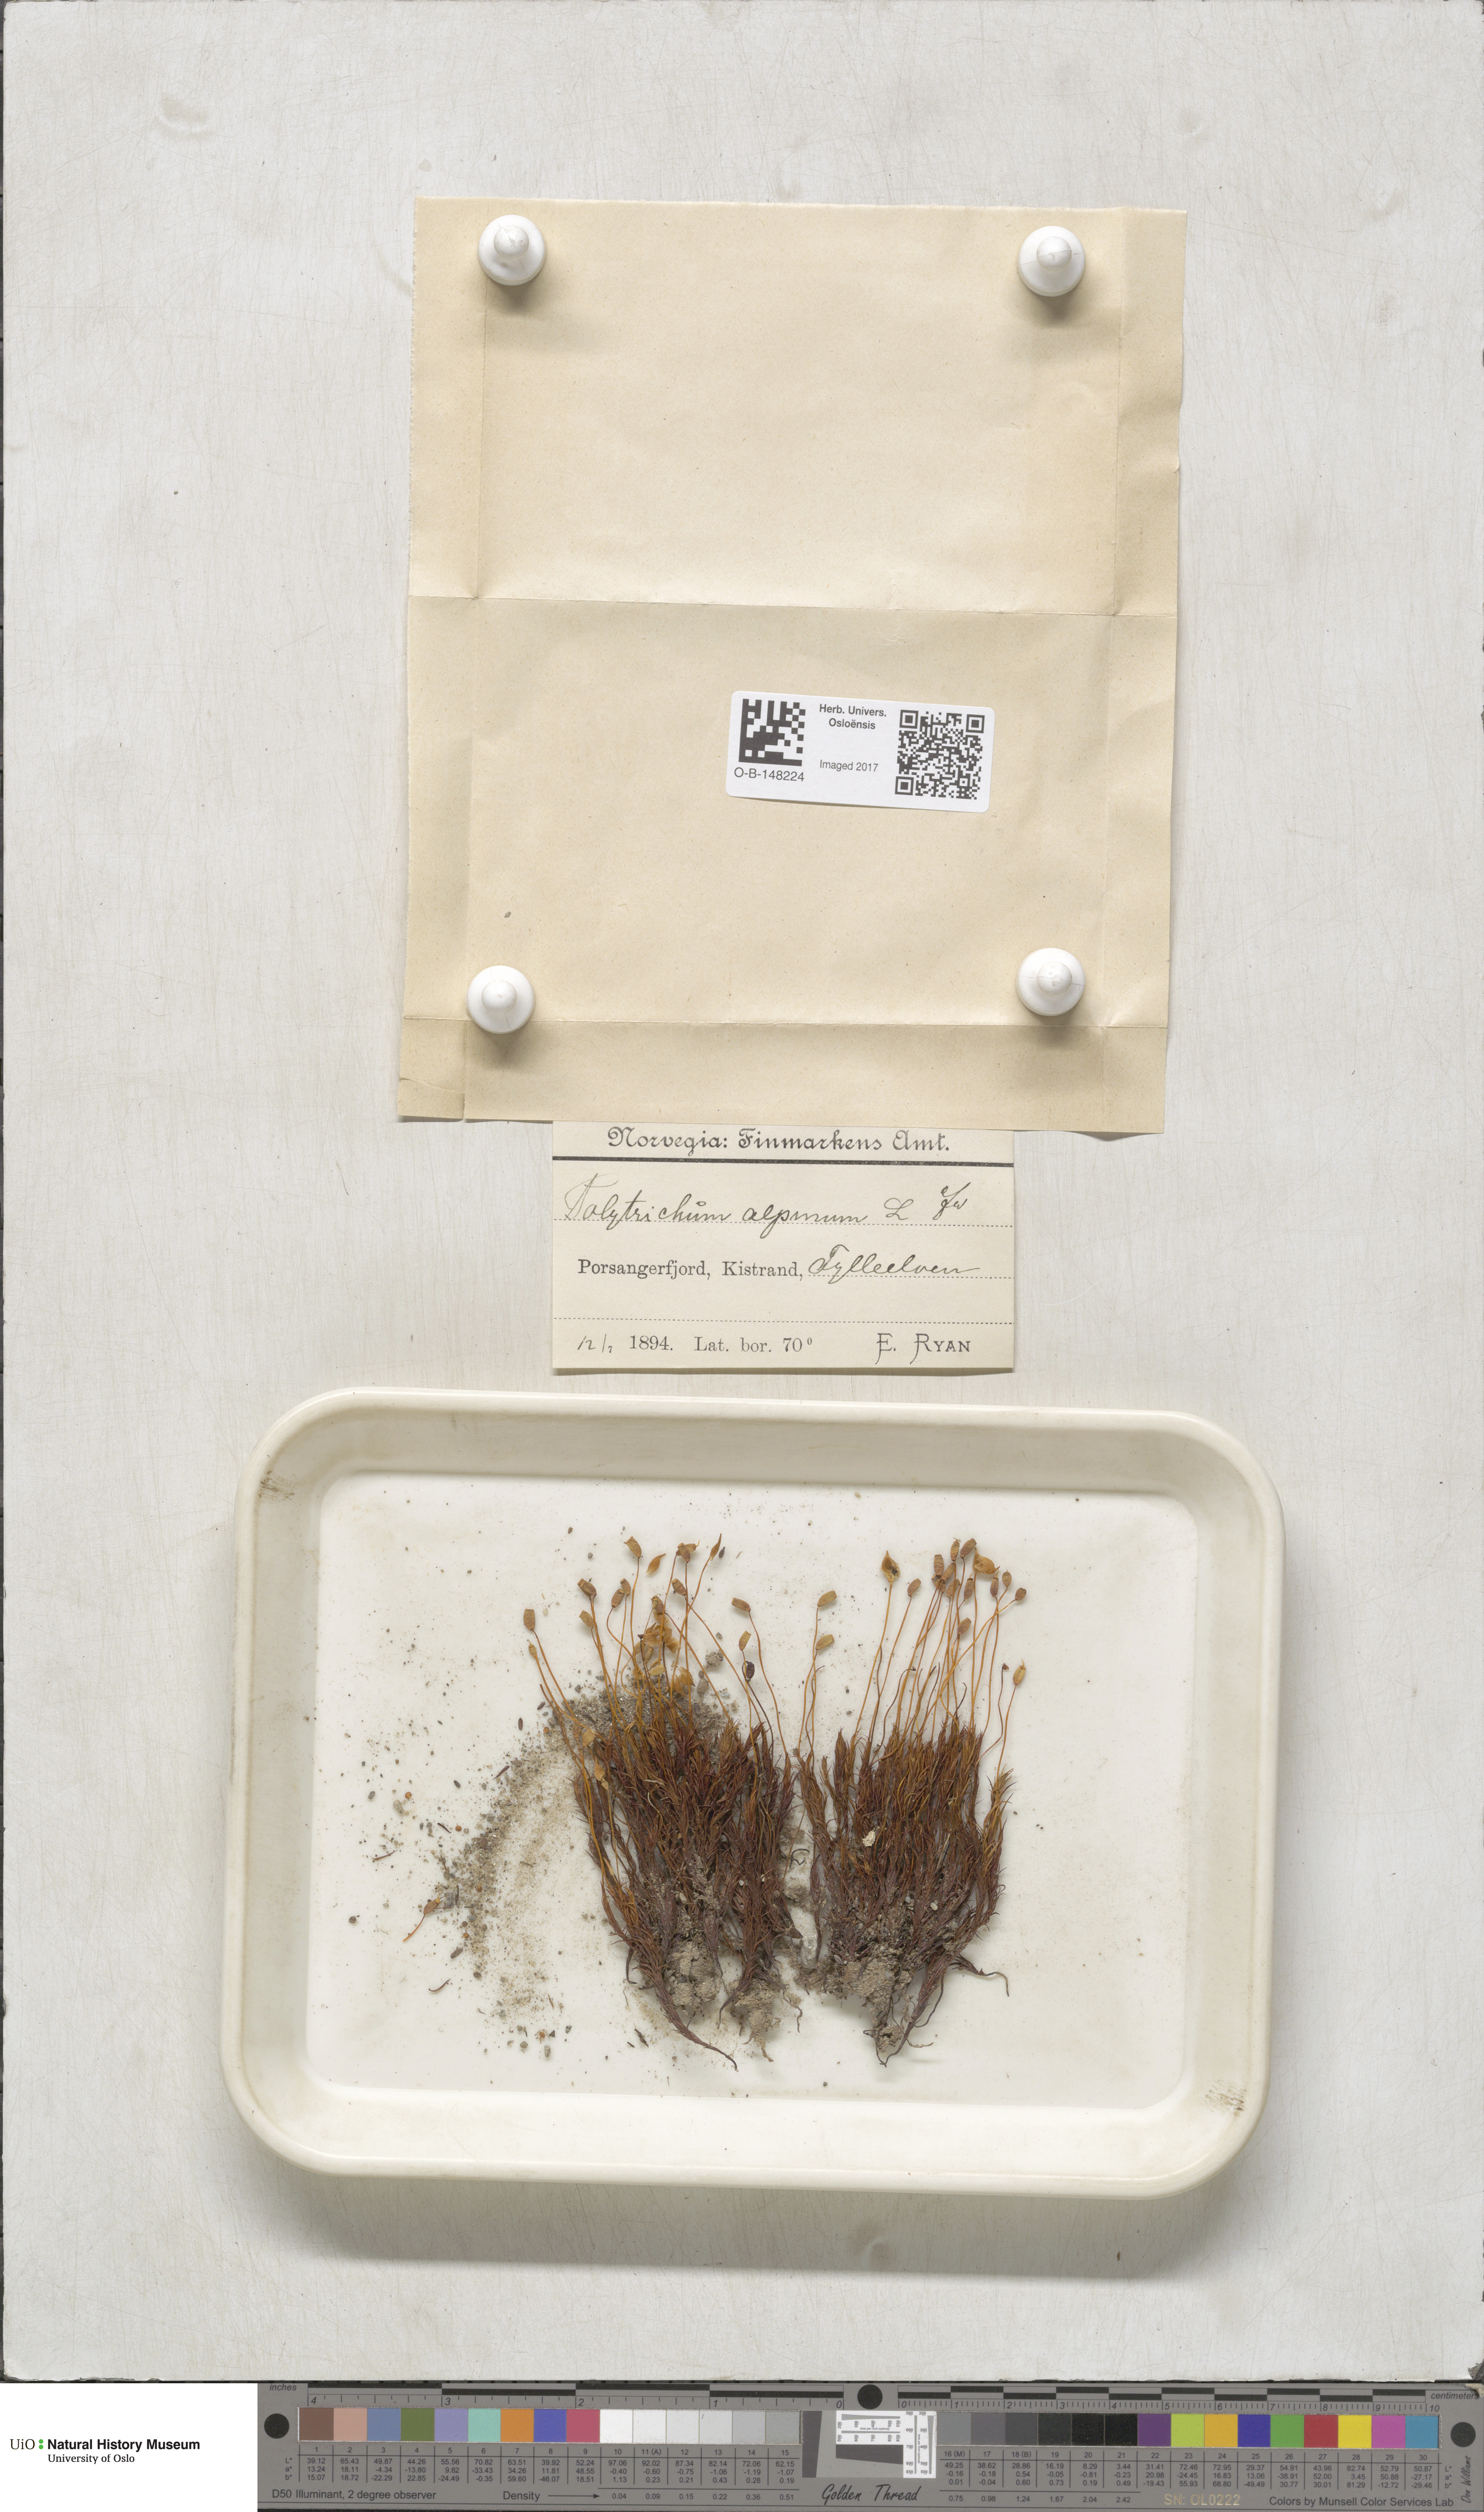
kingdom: Plantae
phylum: Bryophyta
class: Polytrichopsida
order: Polytrichales
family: Polytrichaceae
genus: Polytrichastrum
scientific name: Polytrichastrum alpinum
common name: Alpine haircap
